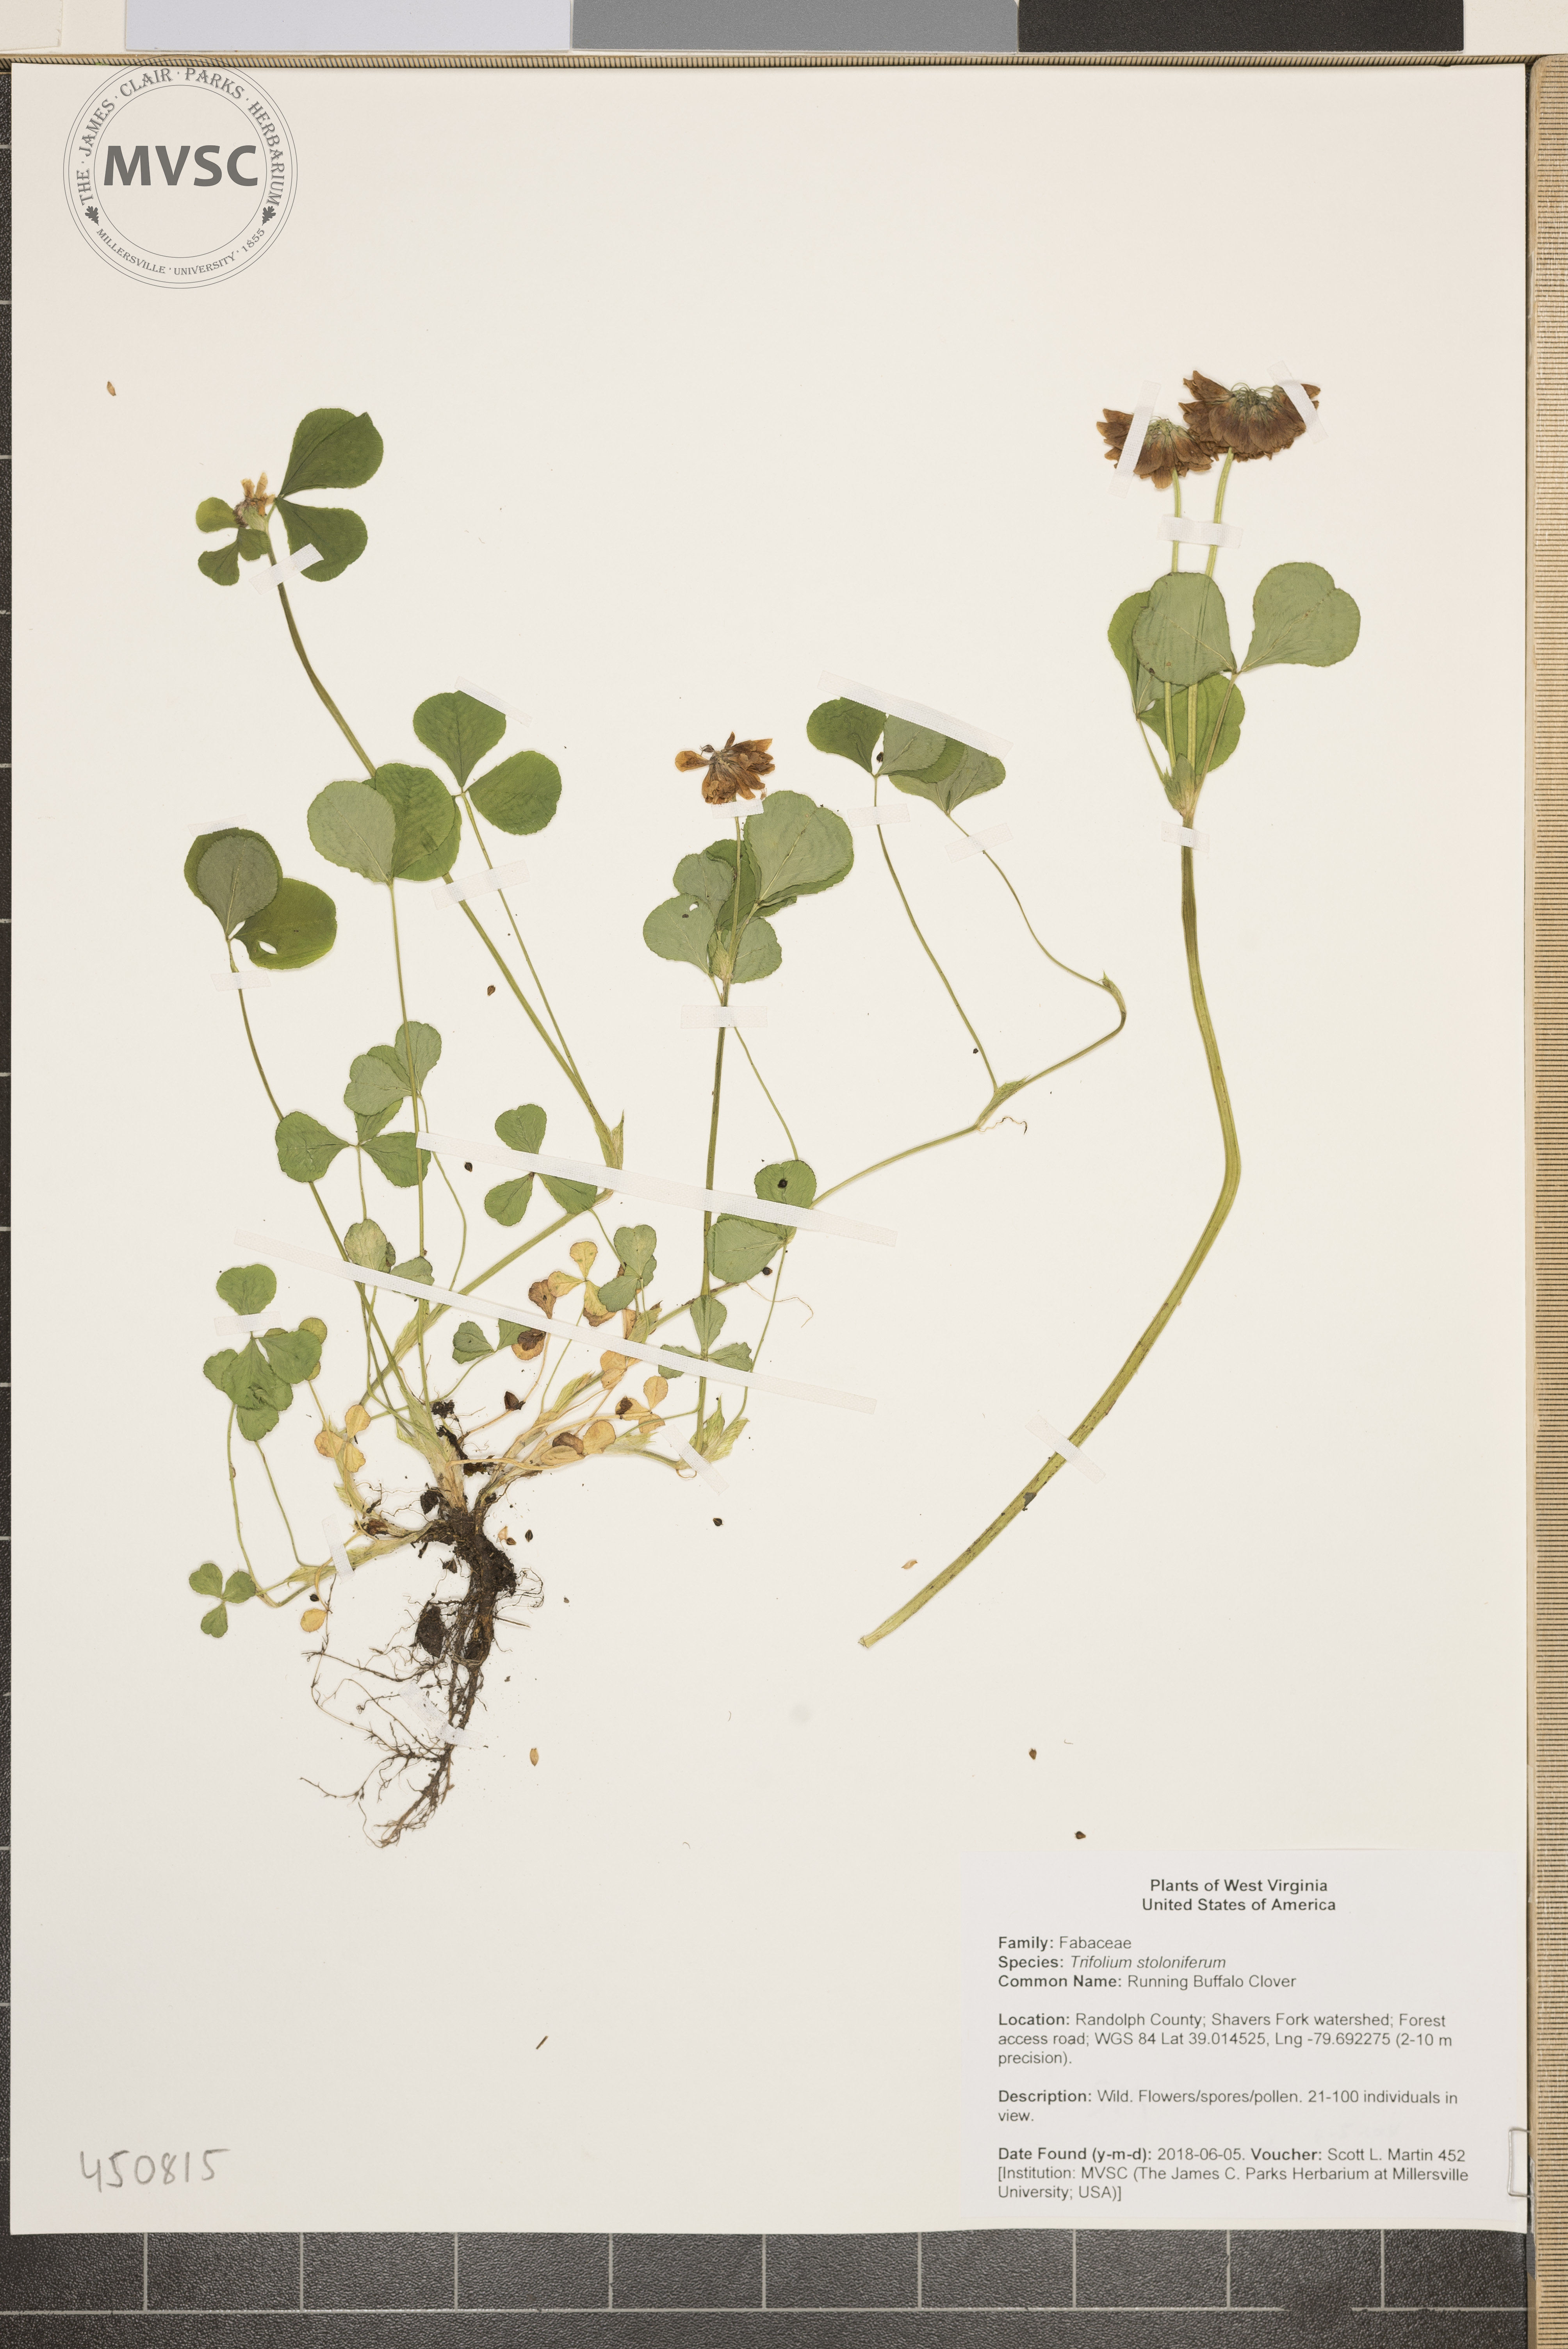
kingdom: Plantae
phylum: Tracheophyta
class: Magnoliopsida
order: Fabales
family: Fabaceae
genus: Trifolium
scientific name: Trifolium stoloniferum
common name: Running Buffalo Clover
